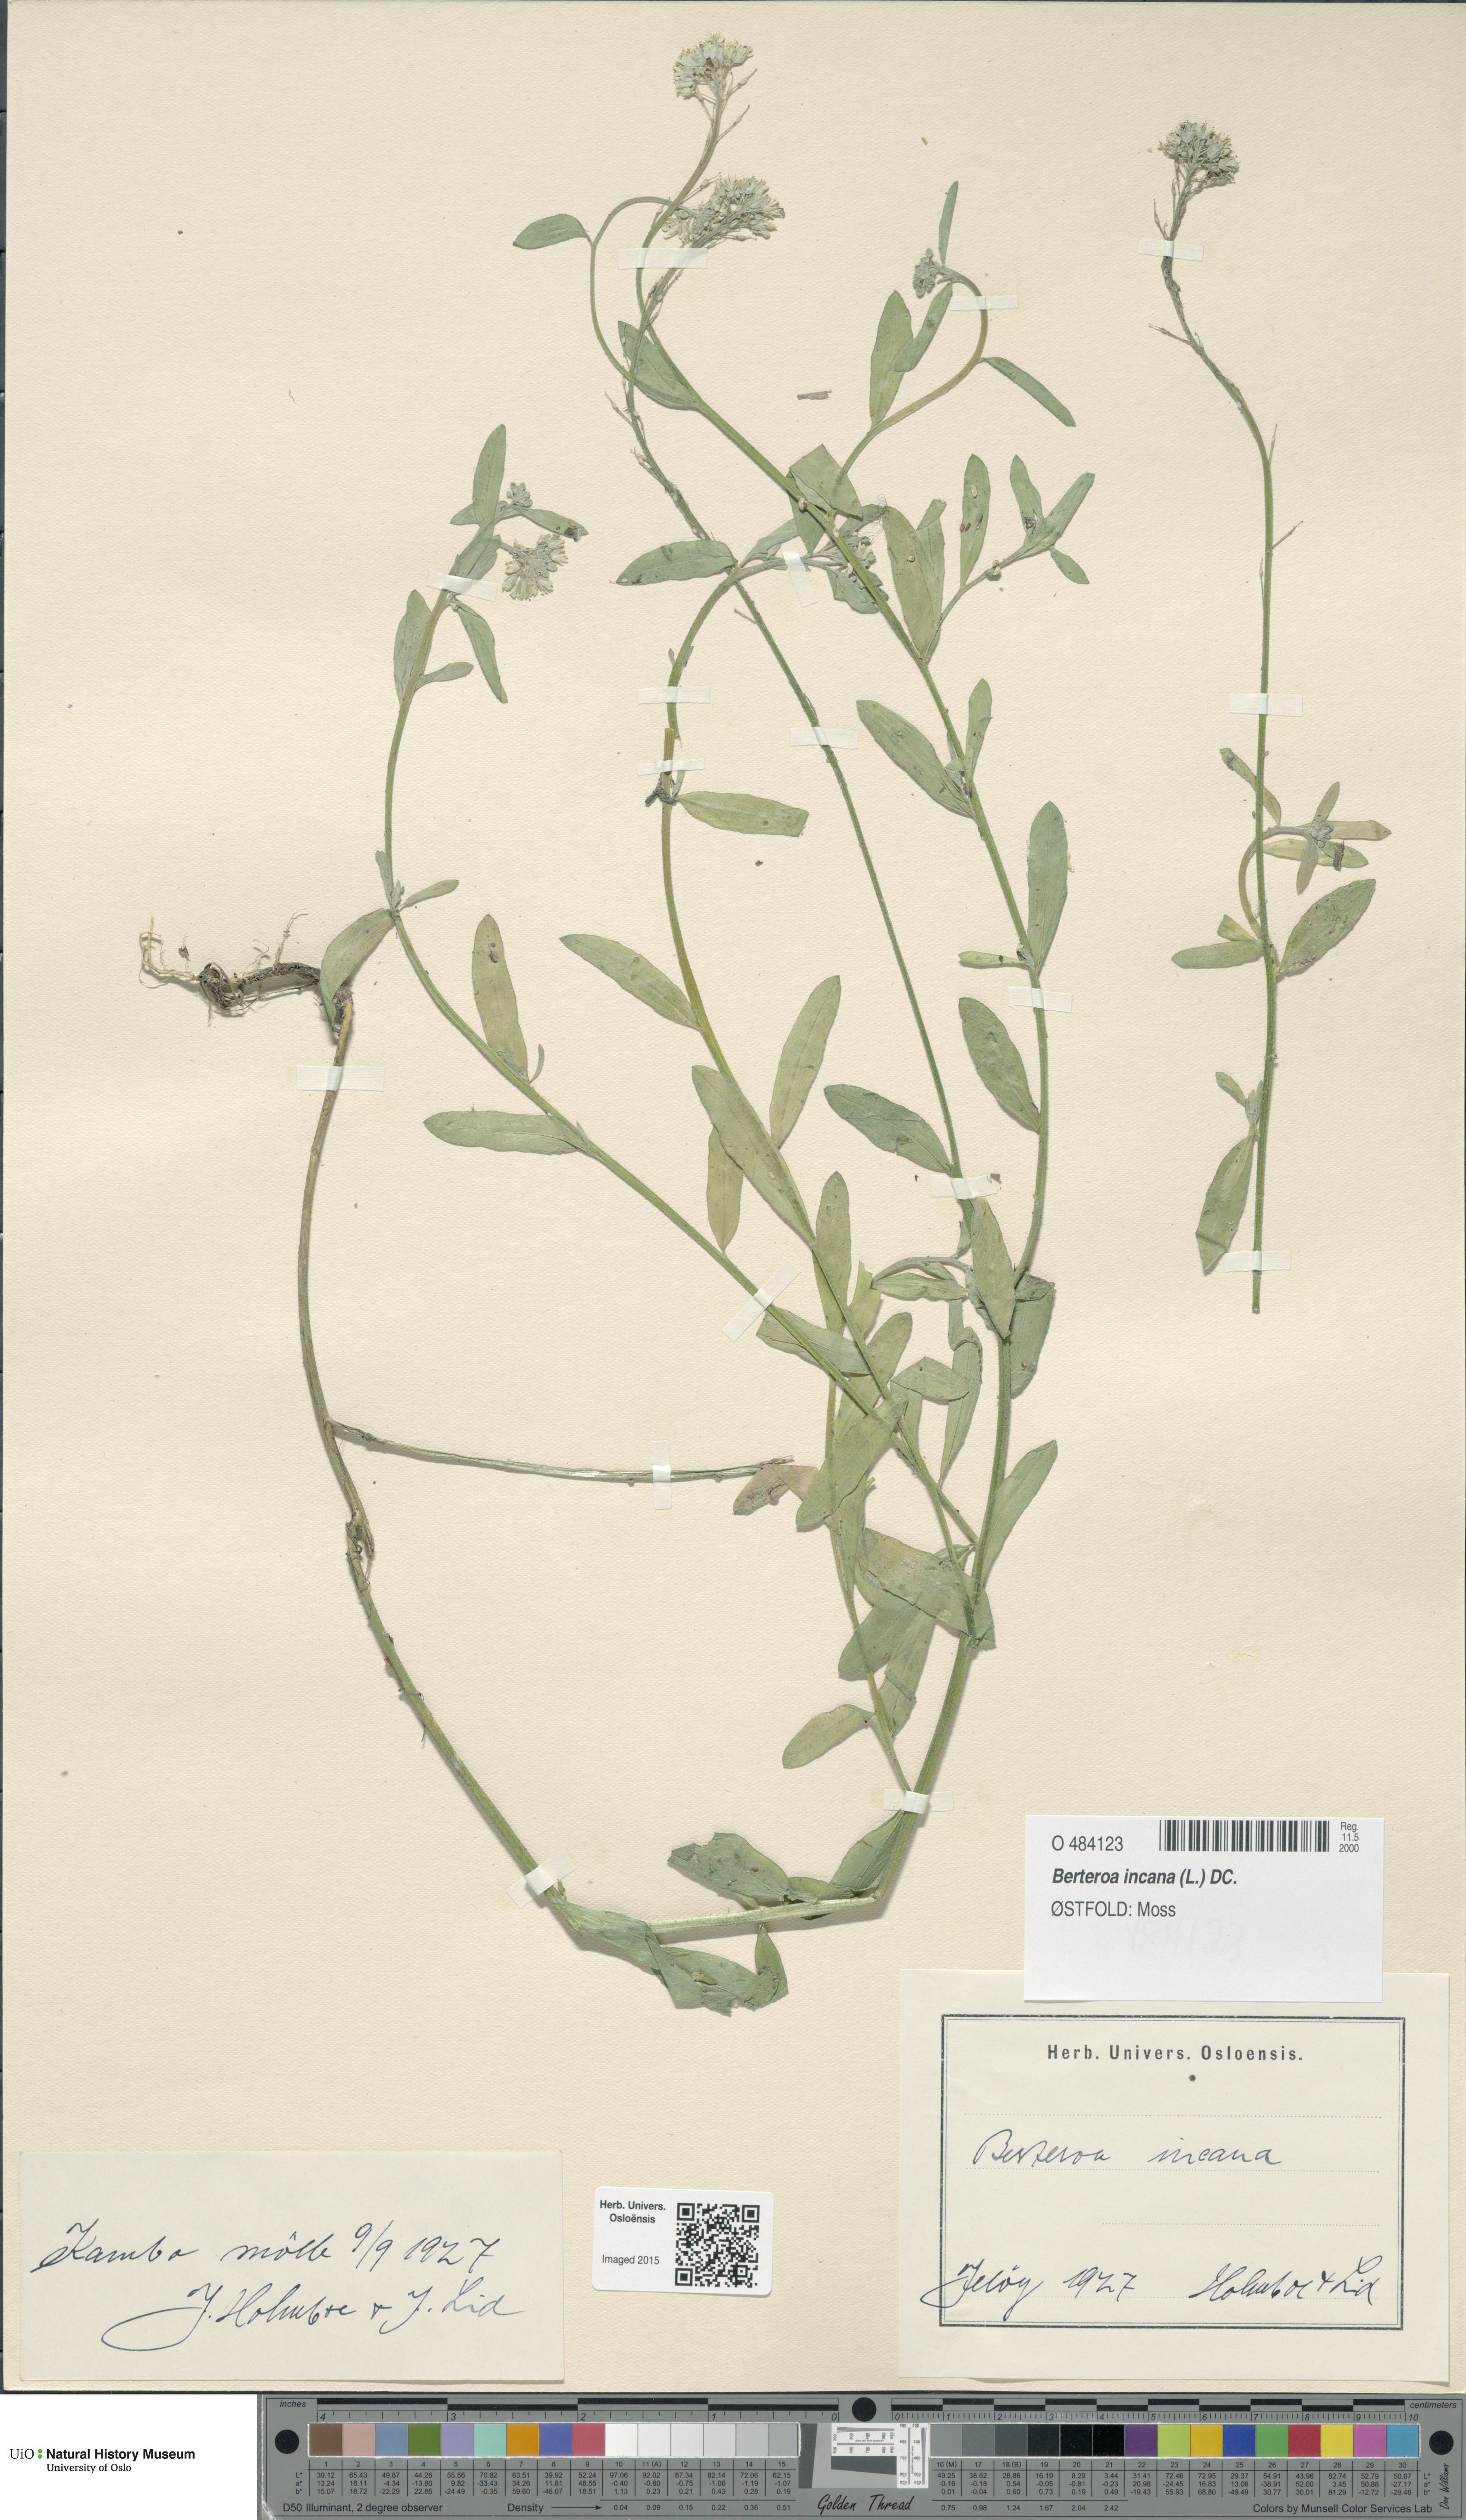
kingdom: Plantae
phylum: Tracheophyta
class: Magnoliopsida
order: Brassicales
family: Brassicaceae
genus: Berteroa
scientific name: Berteroa incana
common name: Hoary alison
